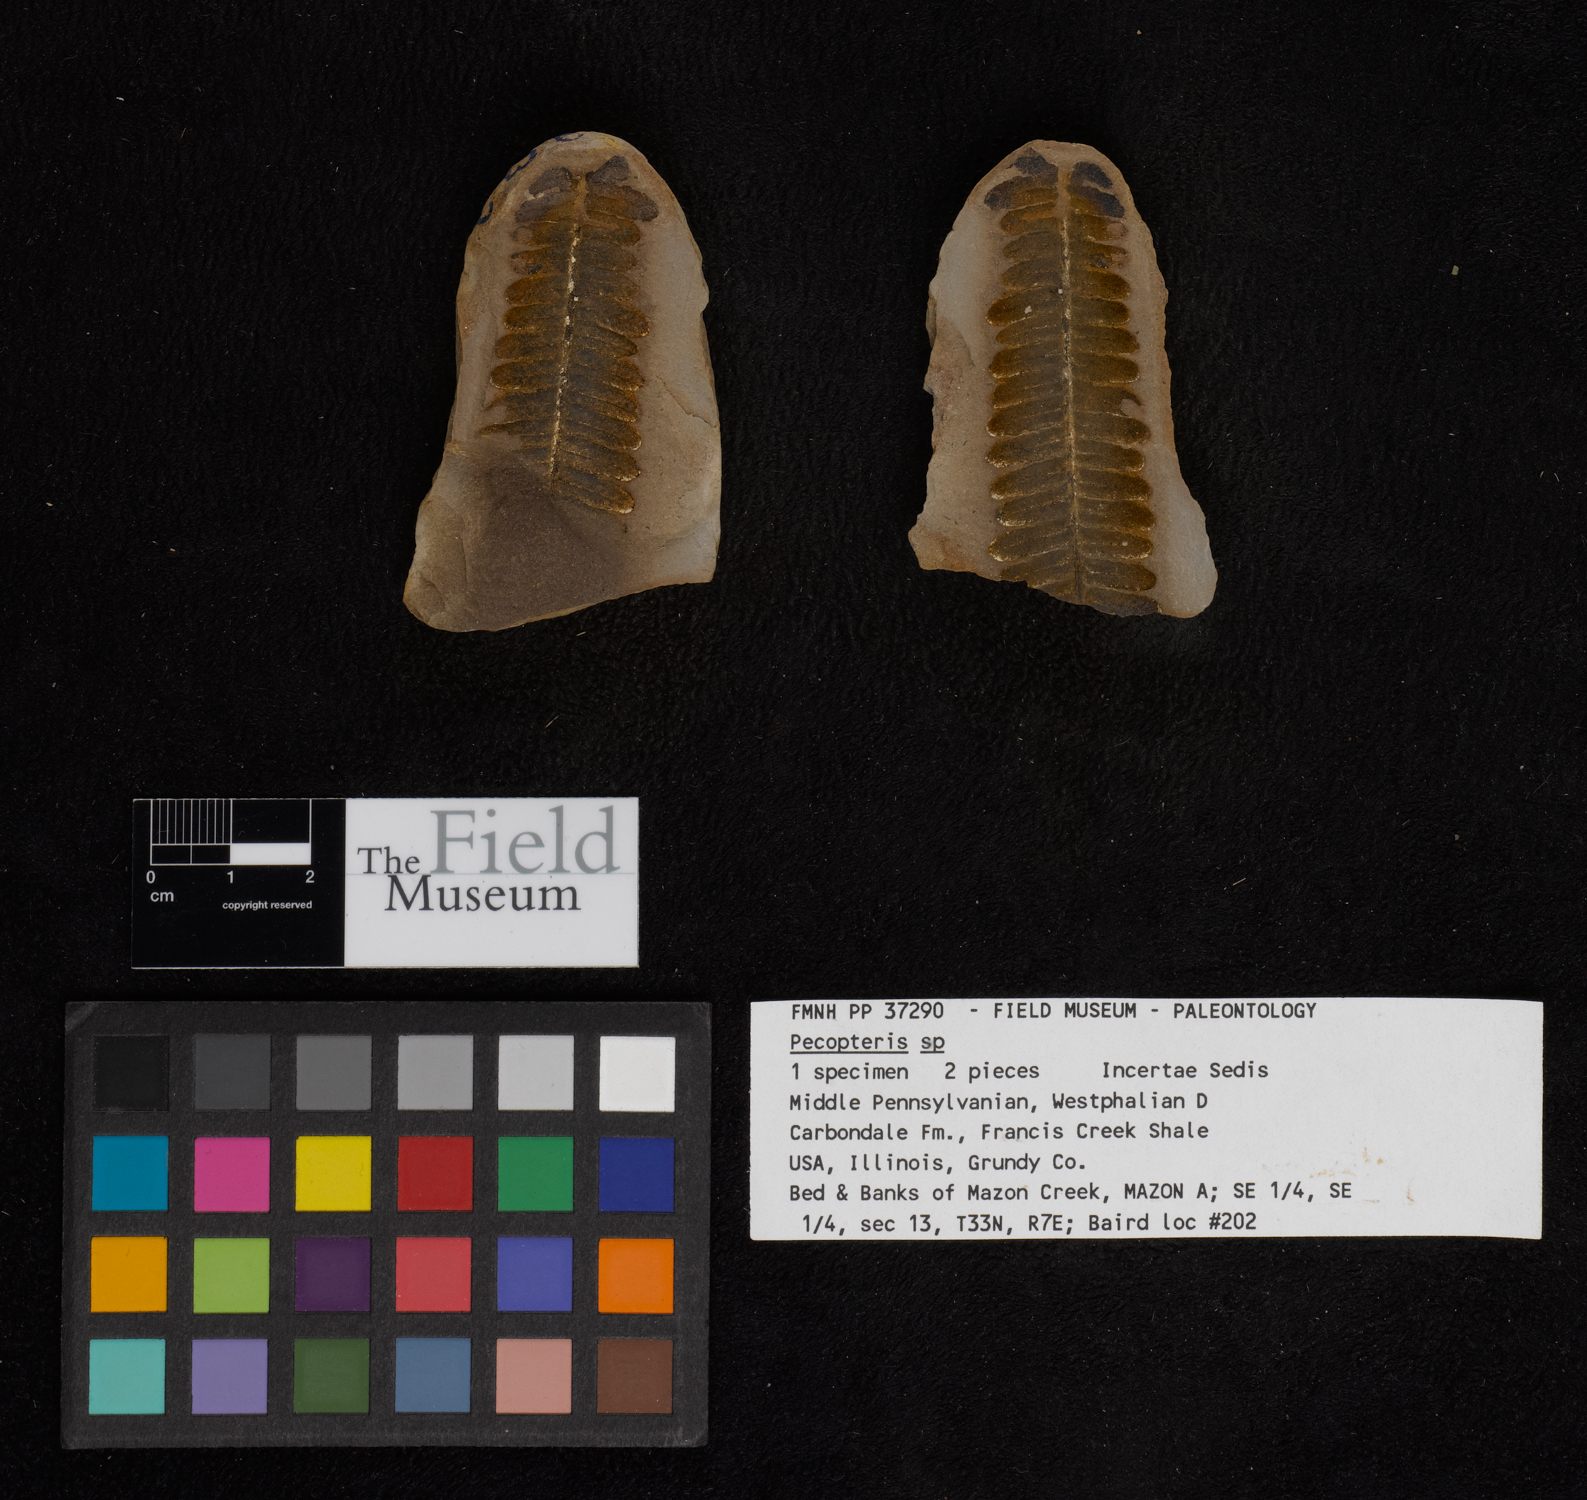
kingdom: Plantae
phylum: Tracheophyta
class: Polypodiopsida
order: Marattiales
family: Asterothecaceae
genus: Pecopteris
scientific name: Pecopteris
